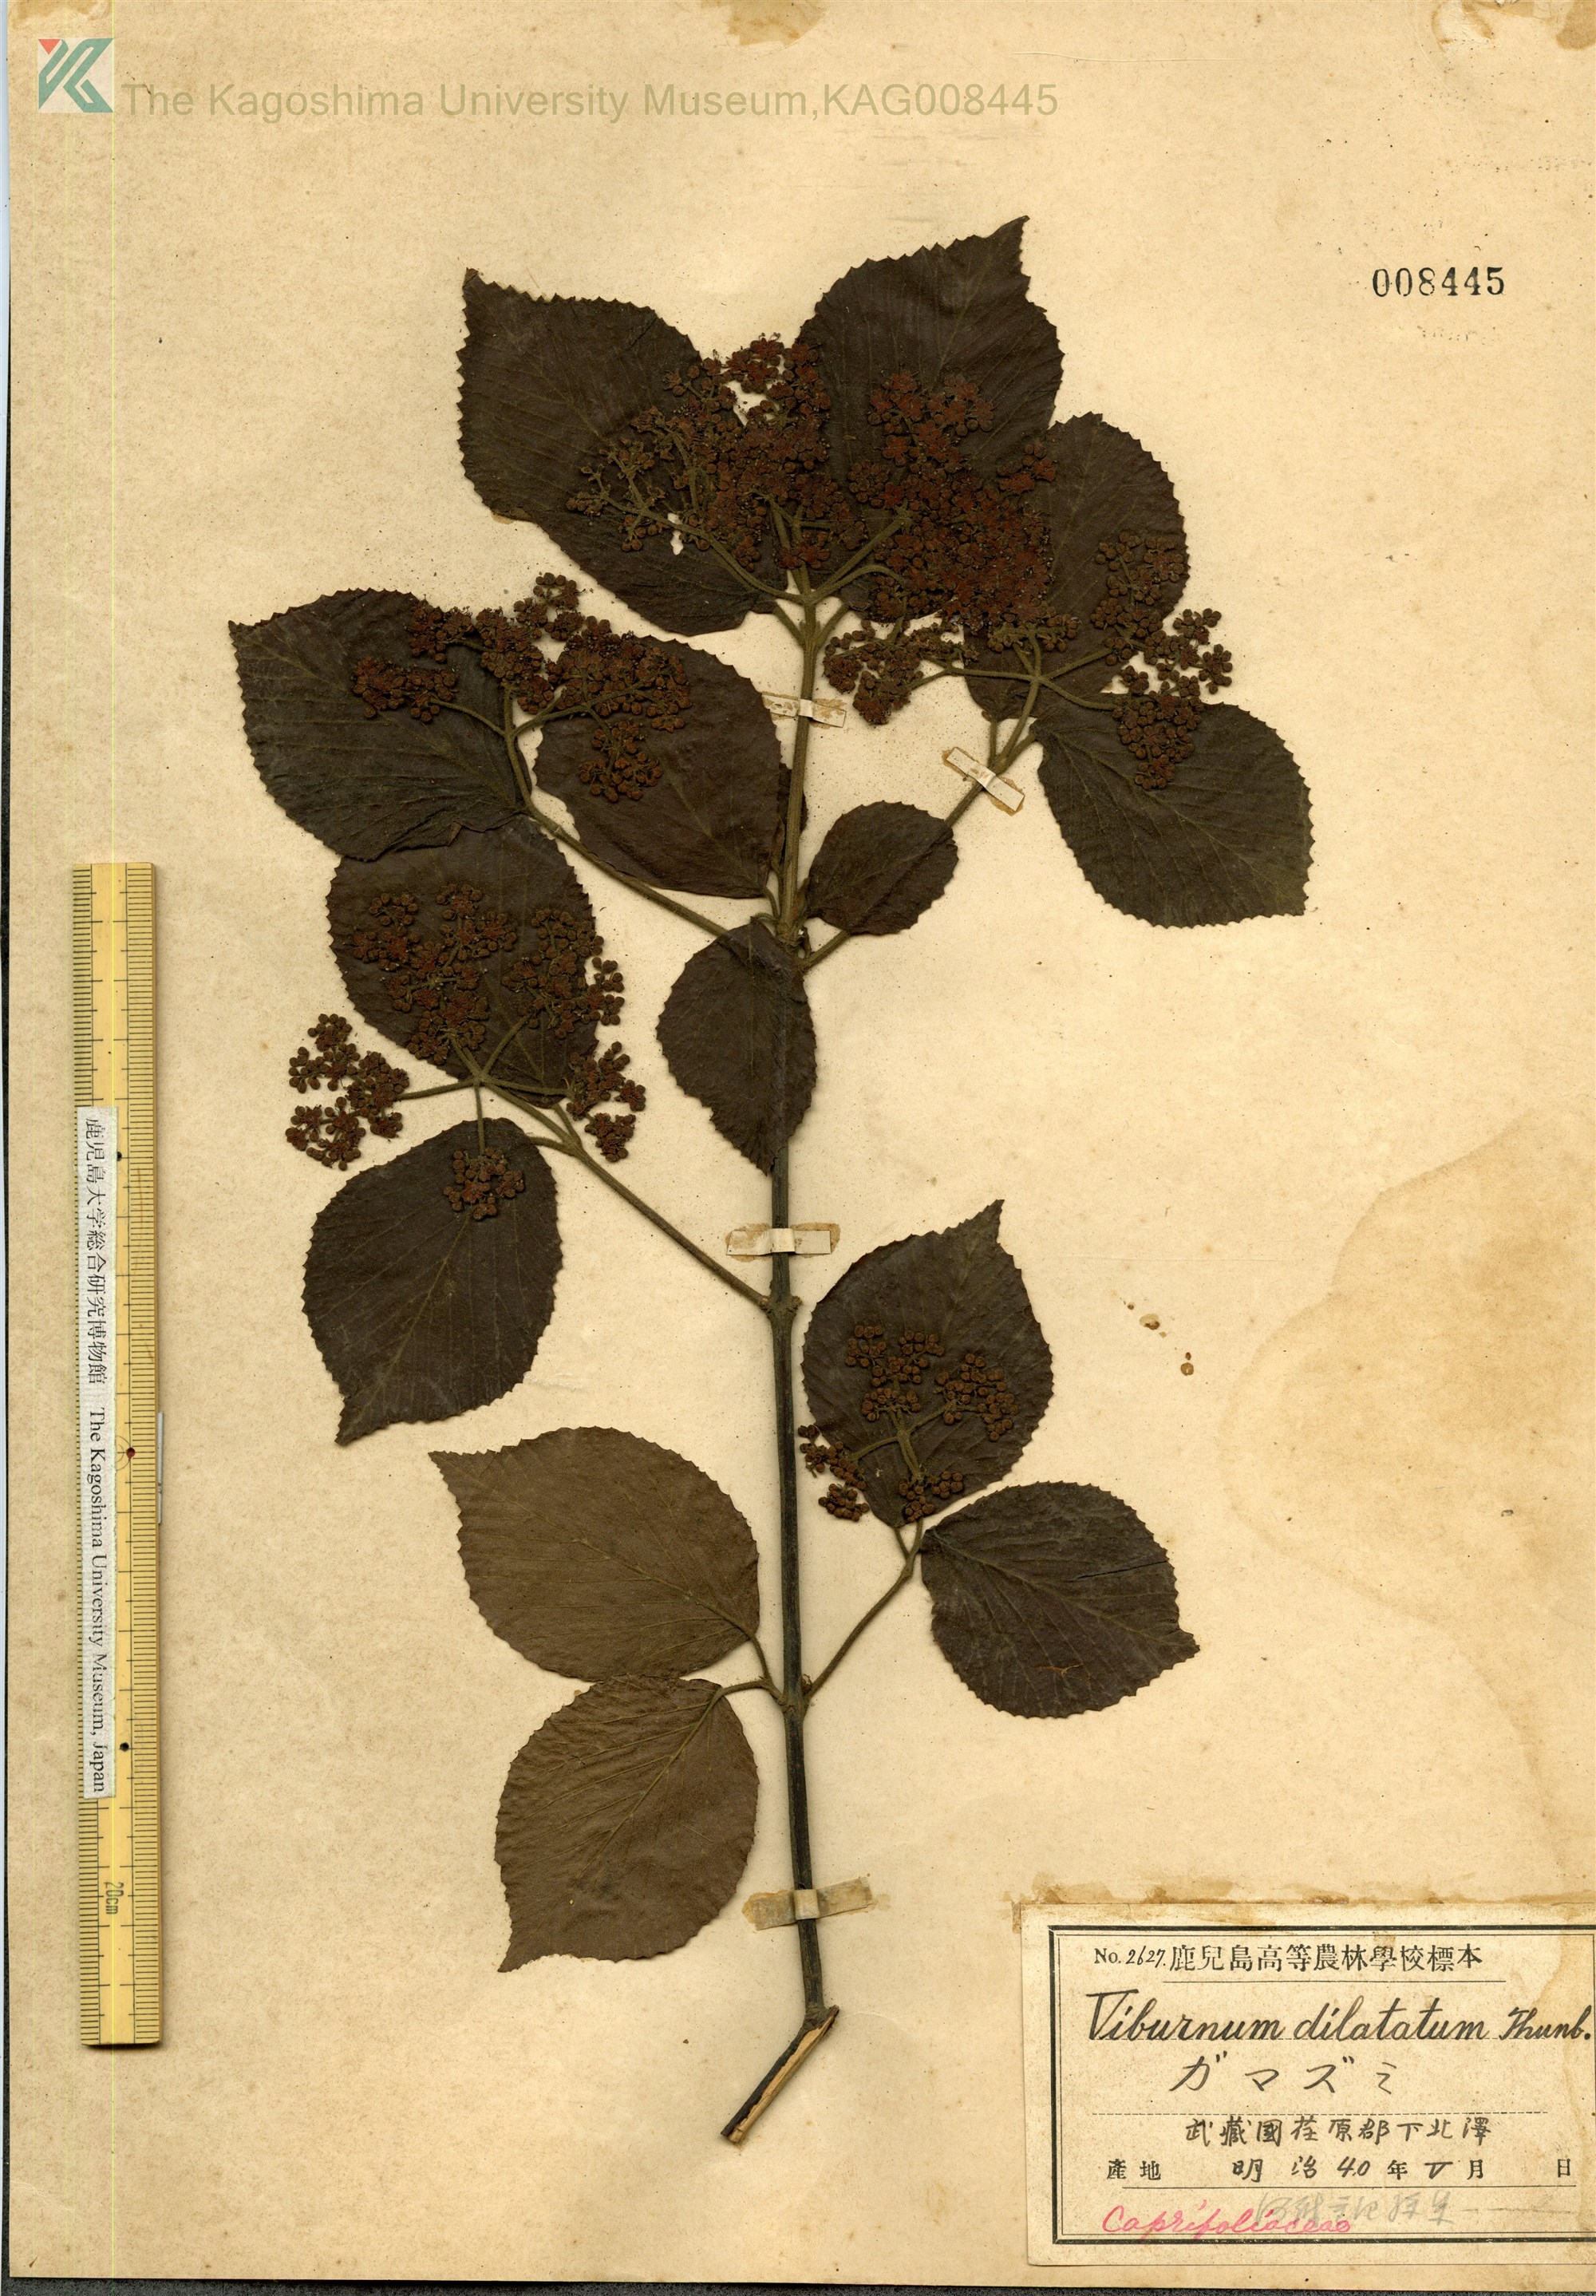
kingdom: Plantae
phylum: Tracheophyta
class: Magnoliopsida
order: Dipsacales
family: Viburnaceae
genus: Viburnum
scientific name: Viburnum dilatatum
